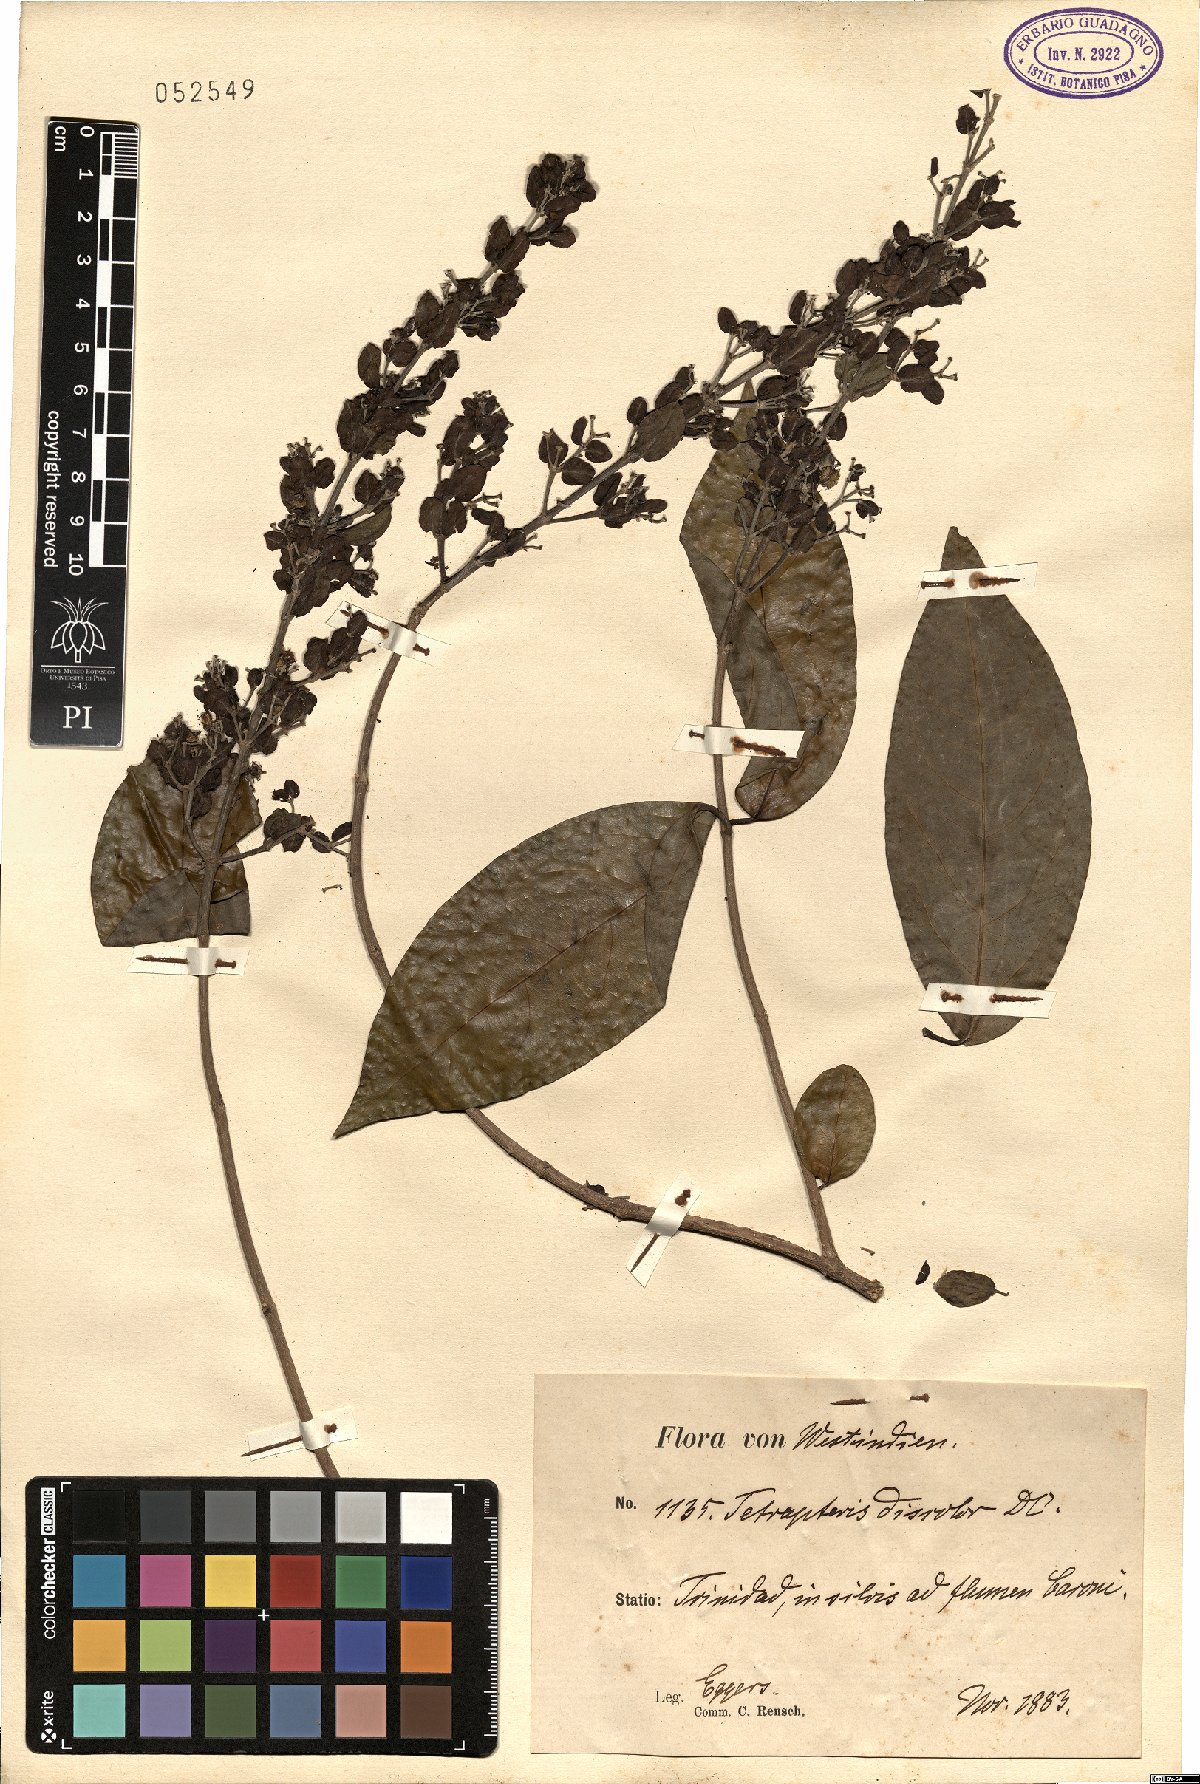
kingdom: Plantae
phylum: Tracheophyta
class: Magnoliopsida
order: Malpighiales
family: Malpighiaceae
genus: Tetrapterys
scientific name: Tetrapterys discolor
